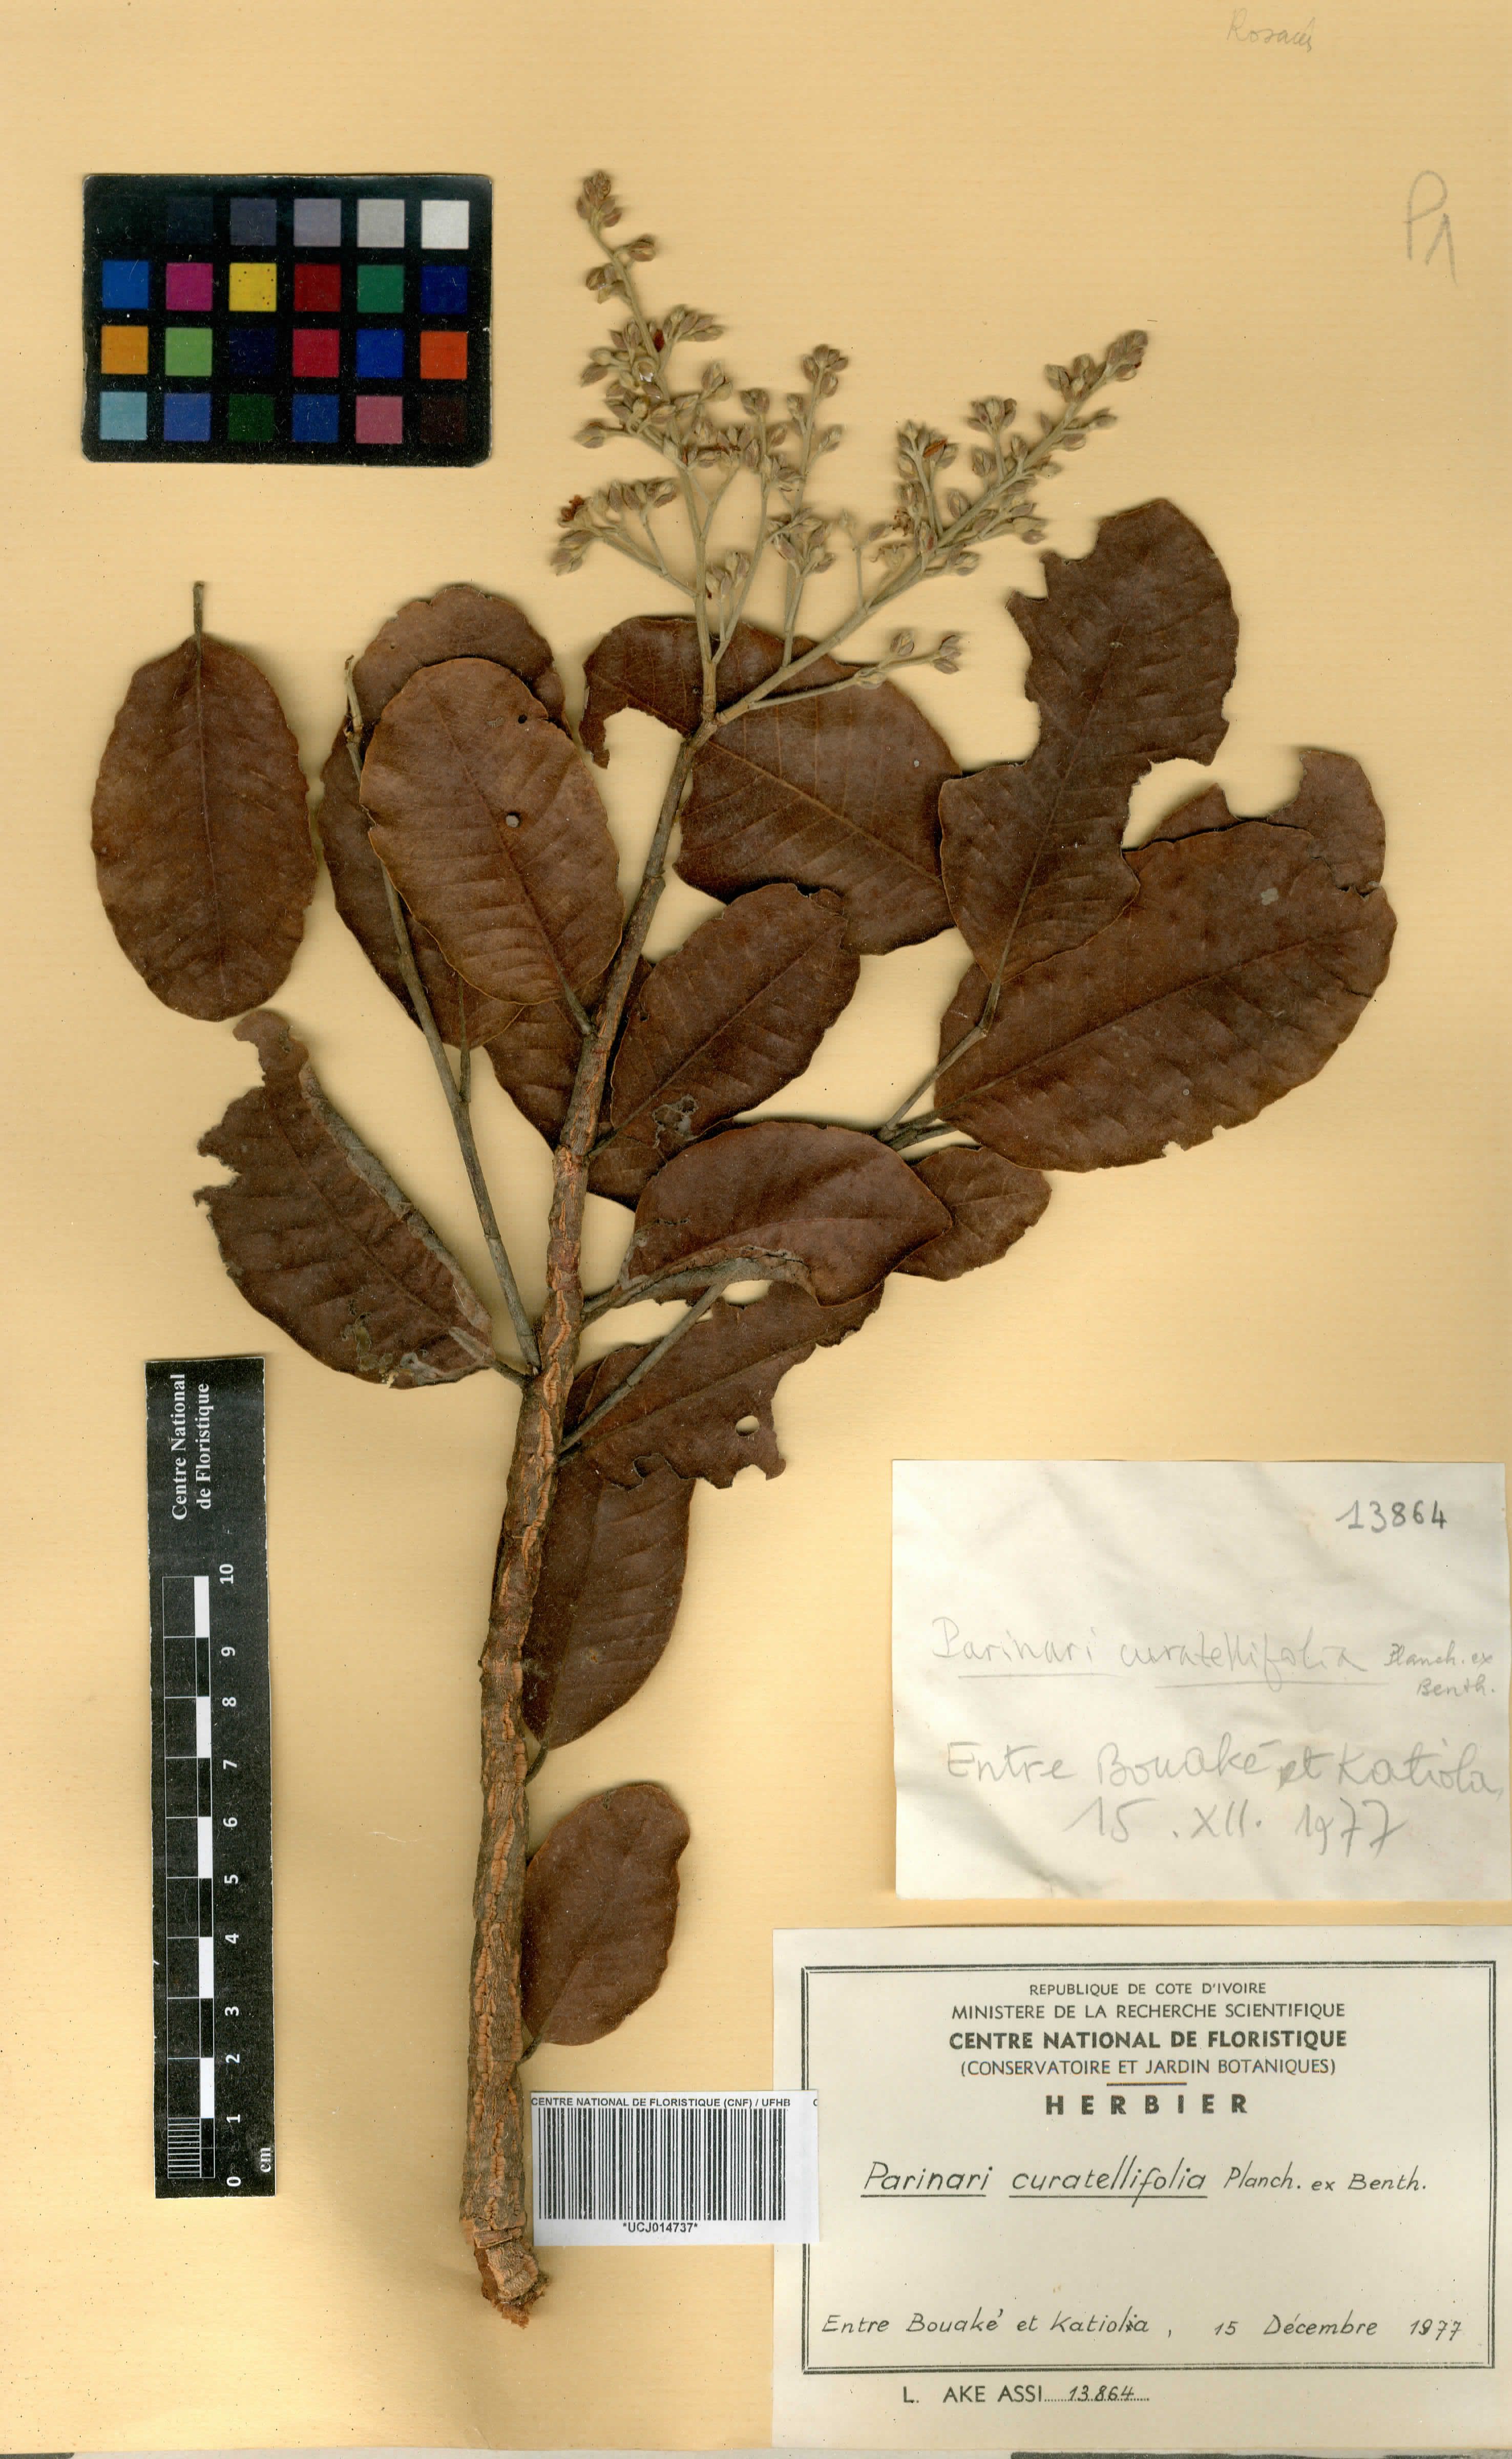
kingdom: Plantae
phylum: Tracheophyta
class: Magnoliopsida
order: Malpighiales
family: Chrysobalanaceae
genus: Parinari
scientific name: Parinari curatellifolia
